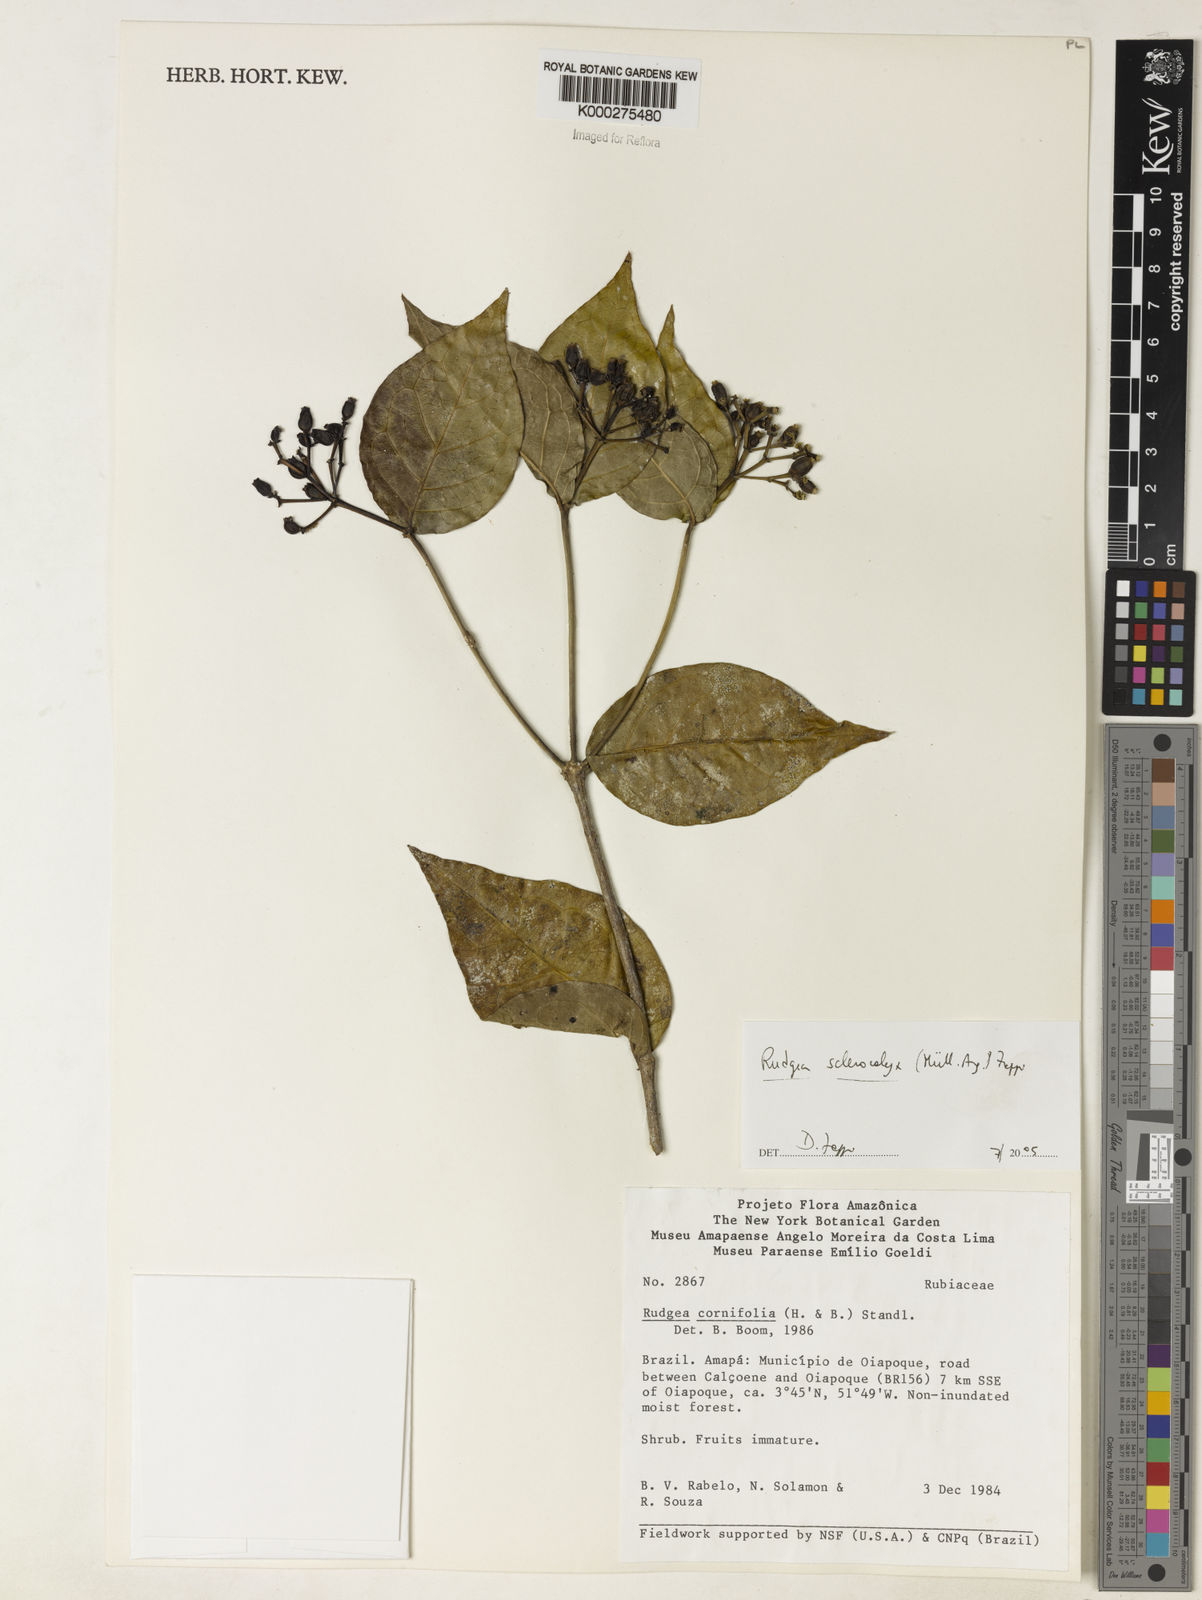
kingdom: Plantae
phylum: Tracheophyta
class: Magnoliopsida
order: Gentianales
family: Rubiaceae
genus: Rudgea
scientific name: Rudgea sclerocalyx
